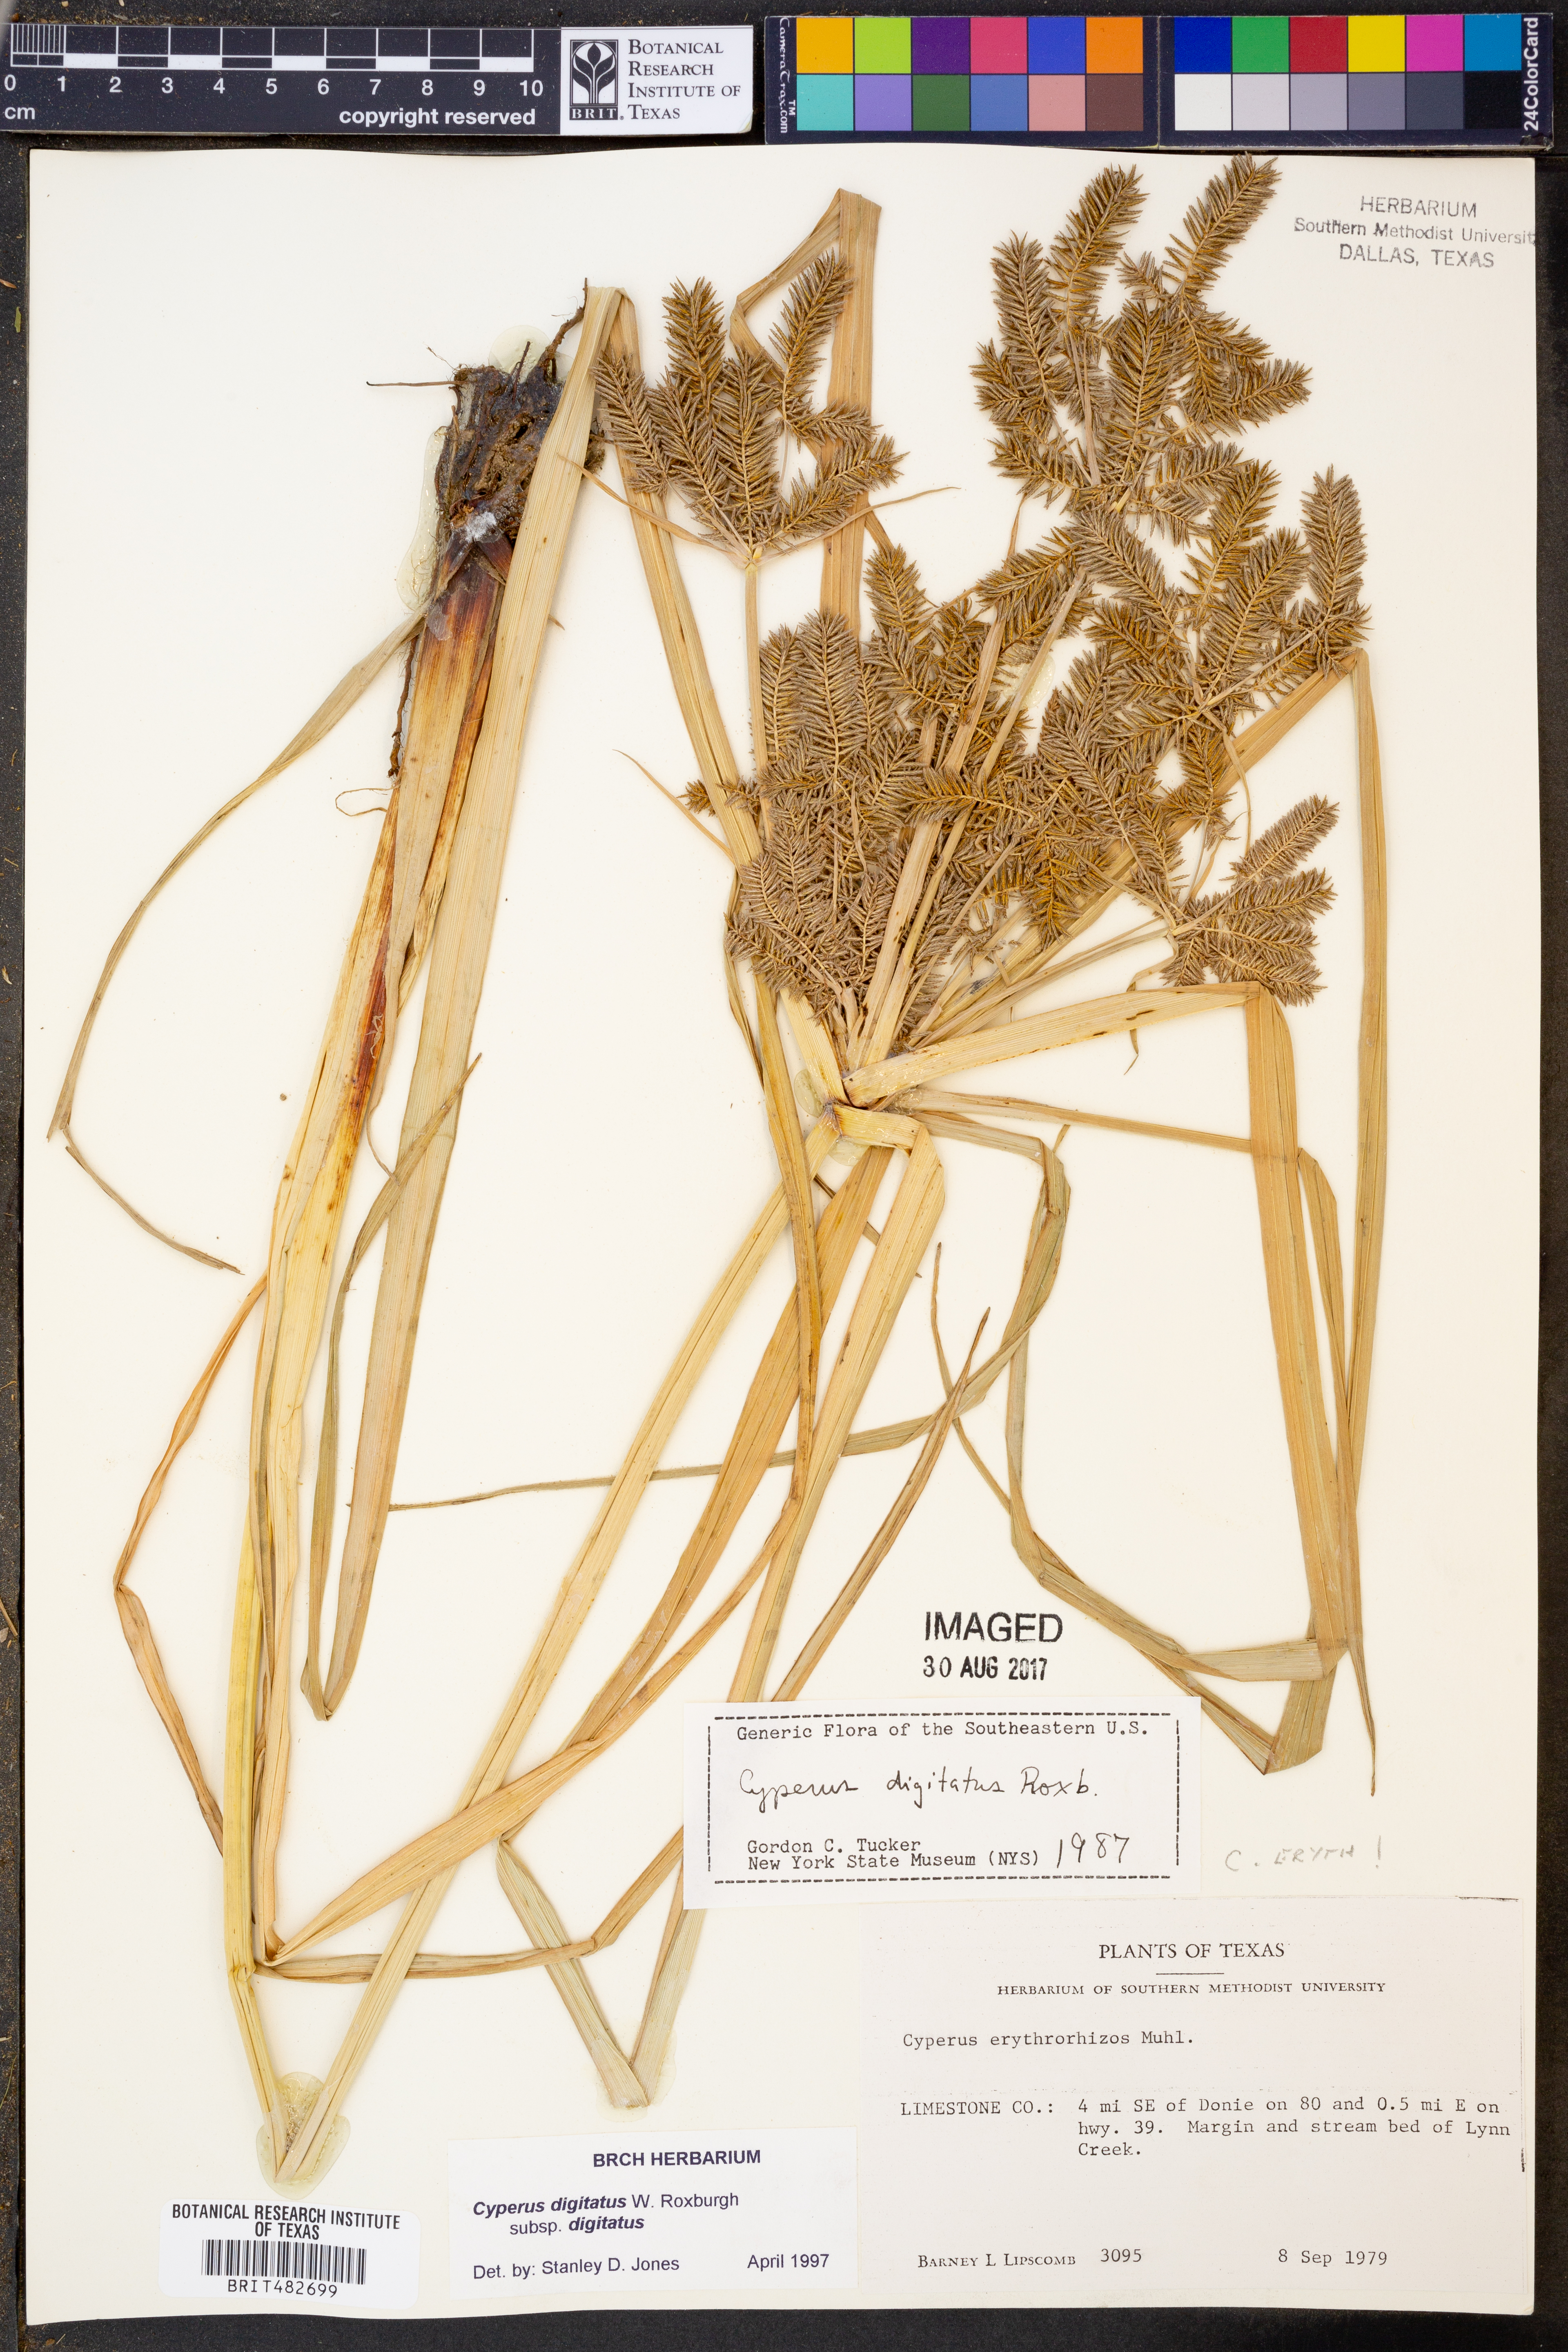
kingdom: Plantae
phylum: Tracheophyta
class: Liliopsida
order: Poales
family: Cyperaceae
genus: Cyperus
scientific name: Cyperus digitatus
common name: Finger flatsedge
